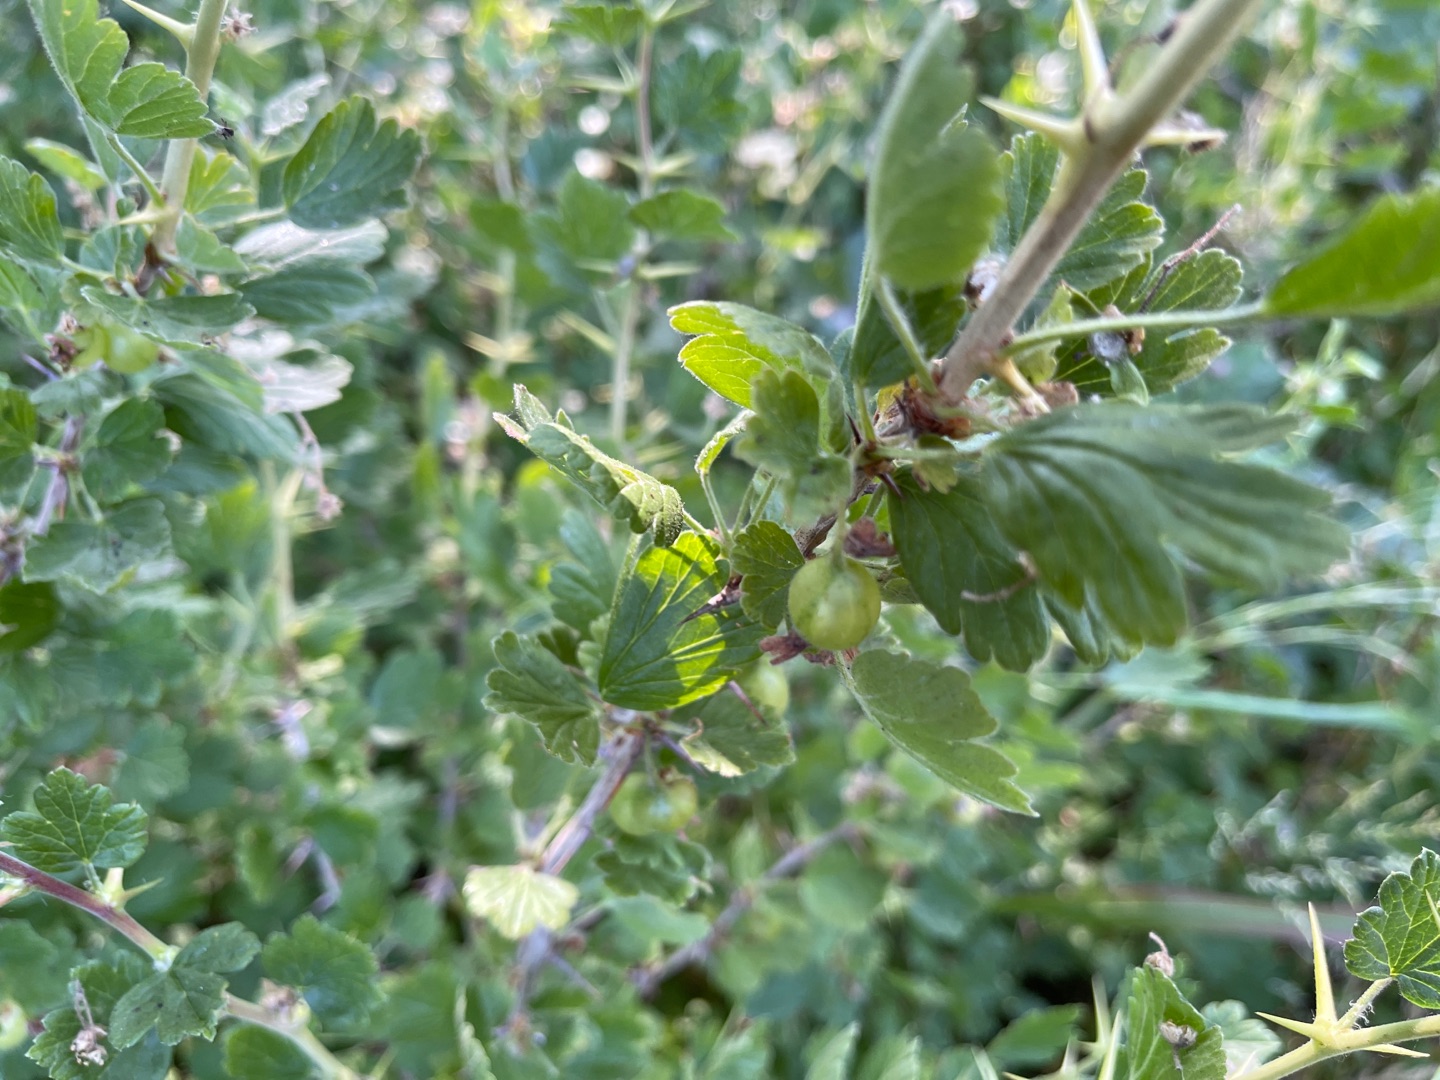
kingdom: Plantae
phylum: Tracheophyta
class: Magnoliopsida
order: Saxifragales
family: Grossulariaceae
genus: Ribes
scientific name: Ribes uva-crispa
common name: Stikkelsbær
